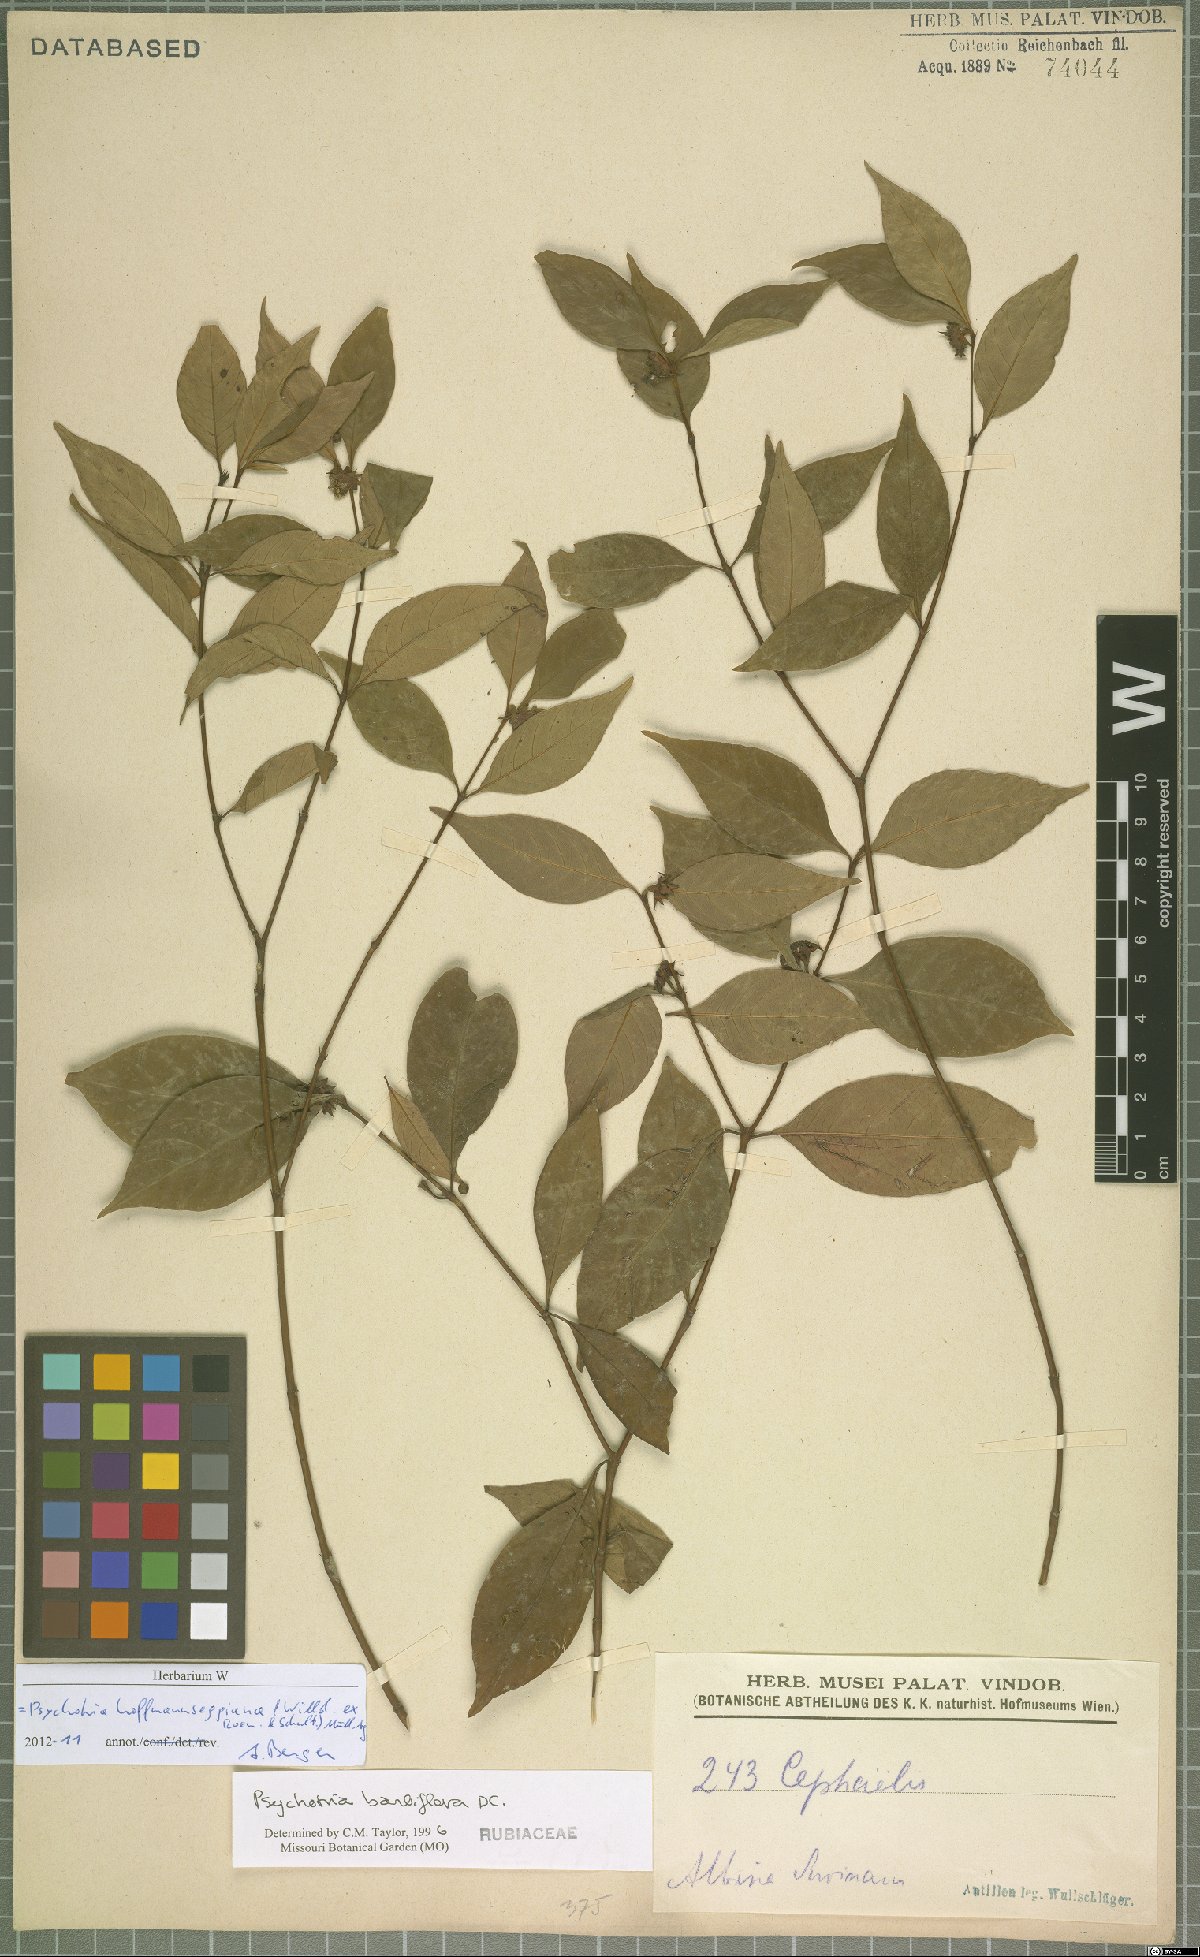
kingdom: Plantae
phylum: Tracheophyta
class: Magnoliopsida
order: Gentianales
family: Rubiaceae
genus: Palicourea
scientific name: Palicourea hoffmannseggiana
